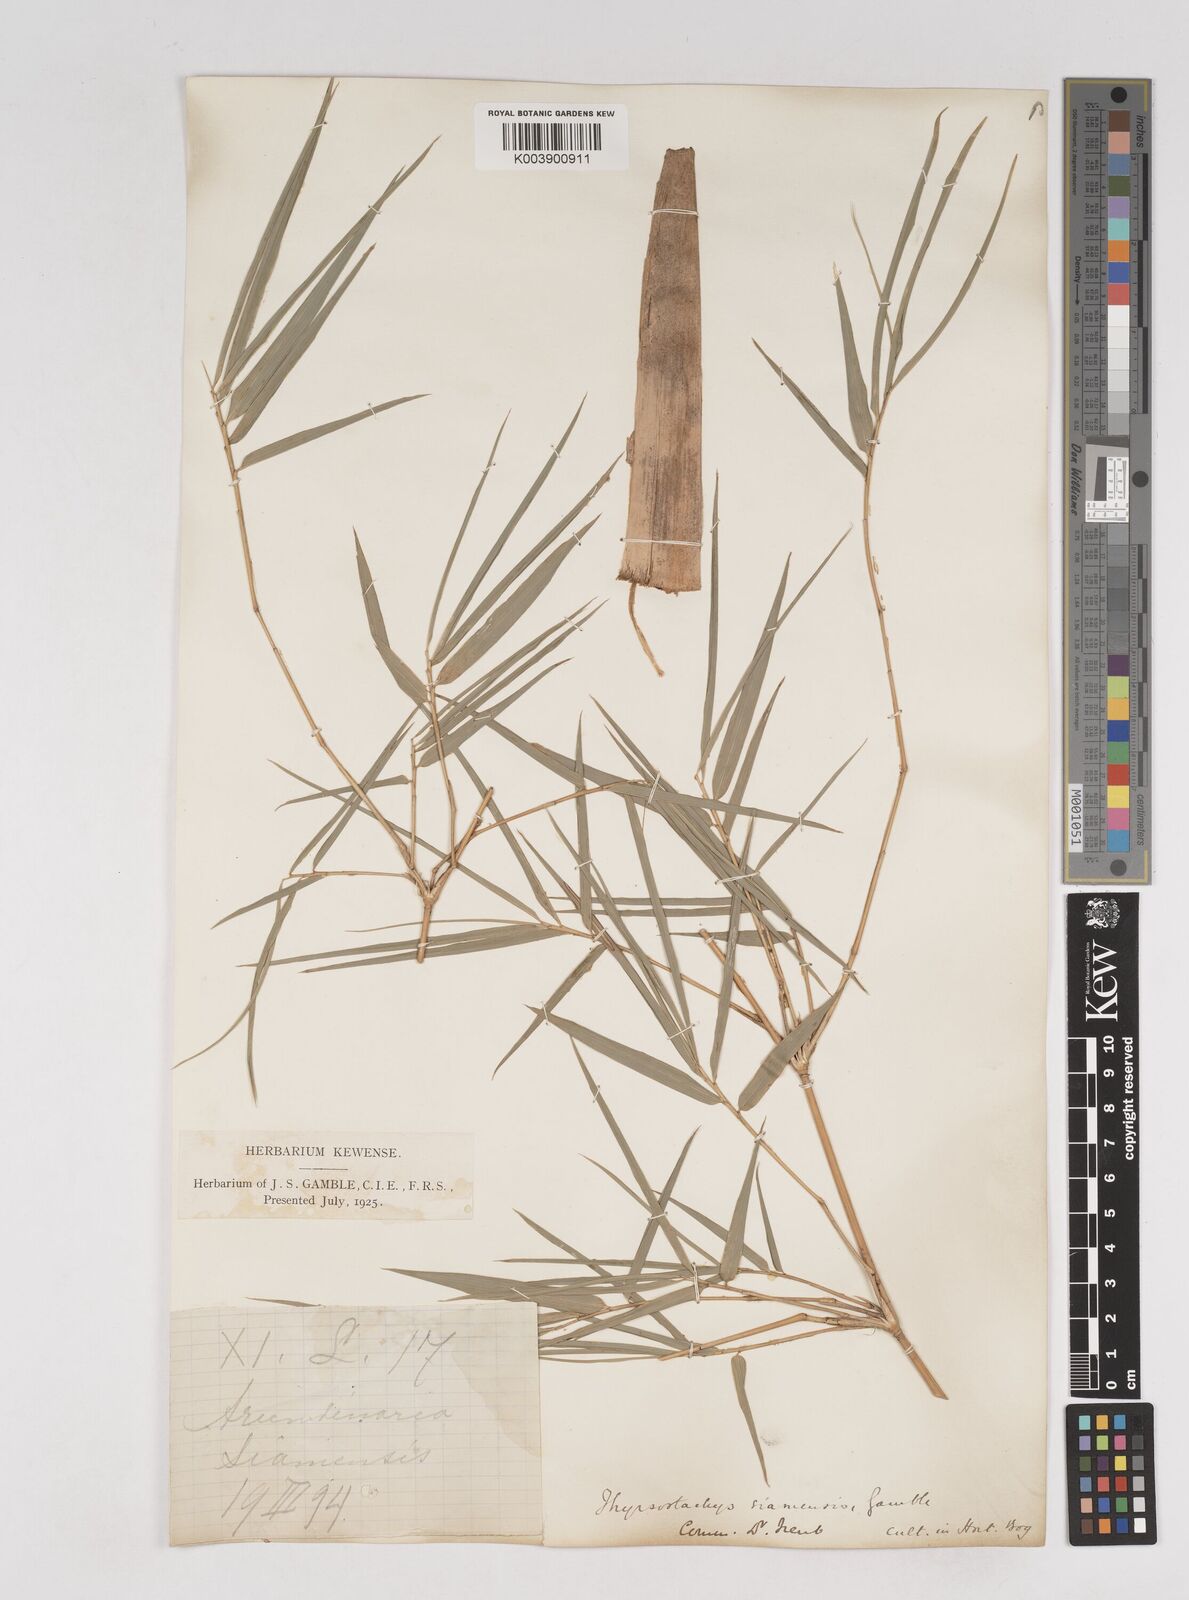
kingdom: Plantae
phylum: Tracheophyta
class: Liliopsida
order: Poales
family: Poaceae
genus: Thyrsostachys
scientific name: Thyrsostachys siamensis
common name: Thailand bamboo
